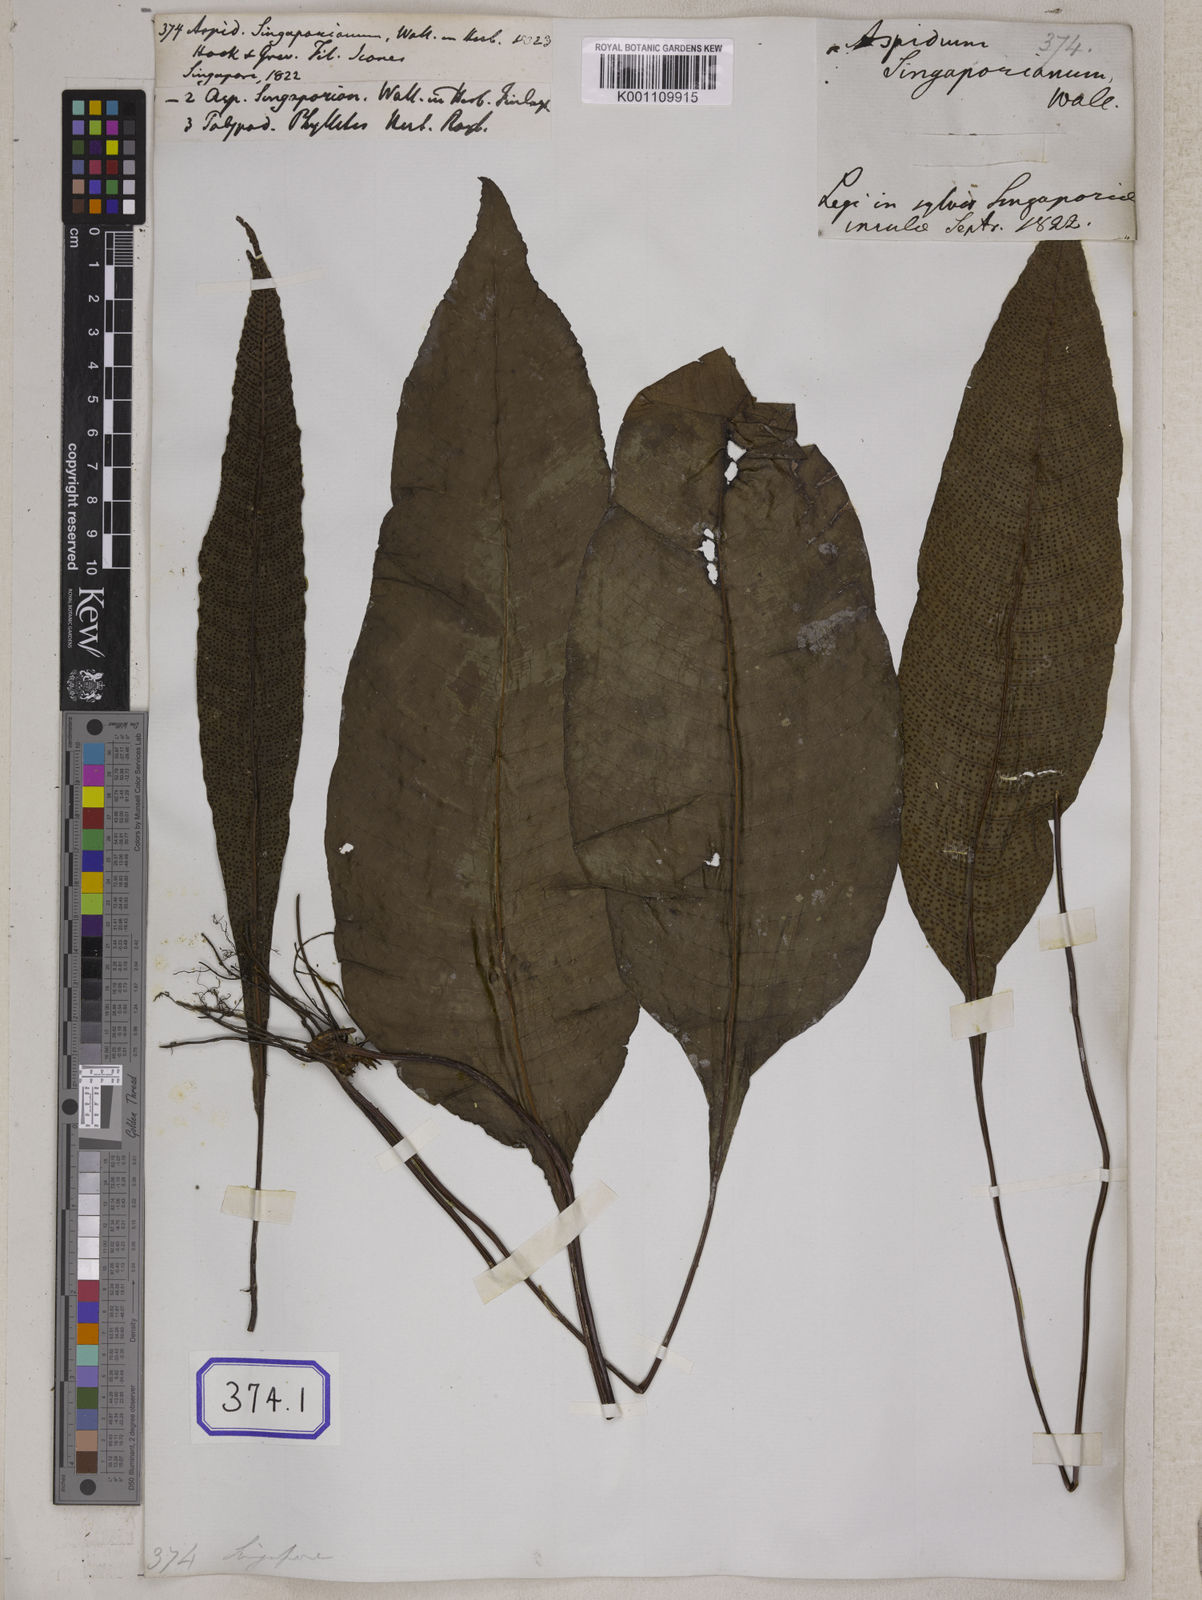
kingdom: Plantae
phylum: Tracheophyta
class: Polypodiopsida
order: Polypodiales
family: Tectariaceae
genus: Tectaria
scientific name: Tectaria Aspidium spec
